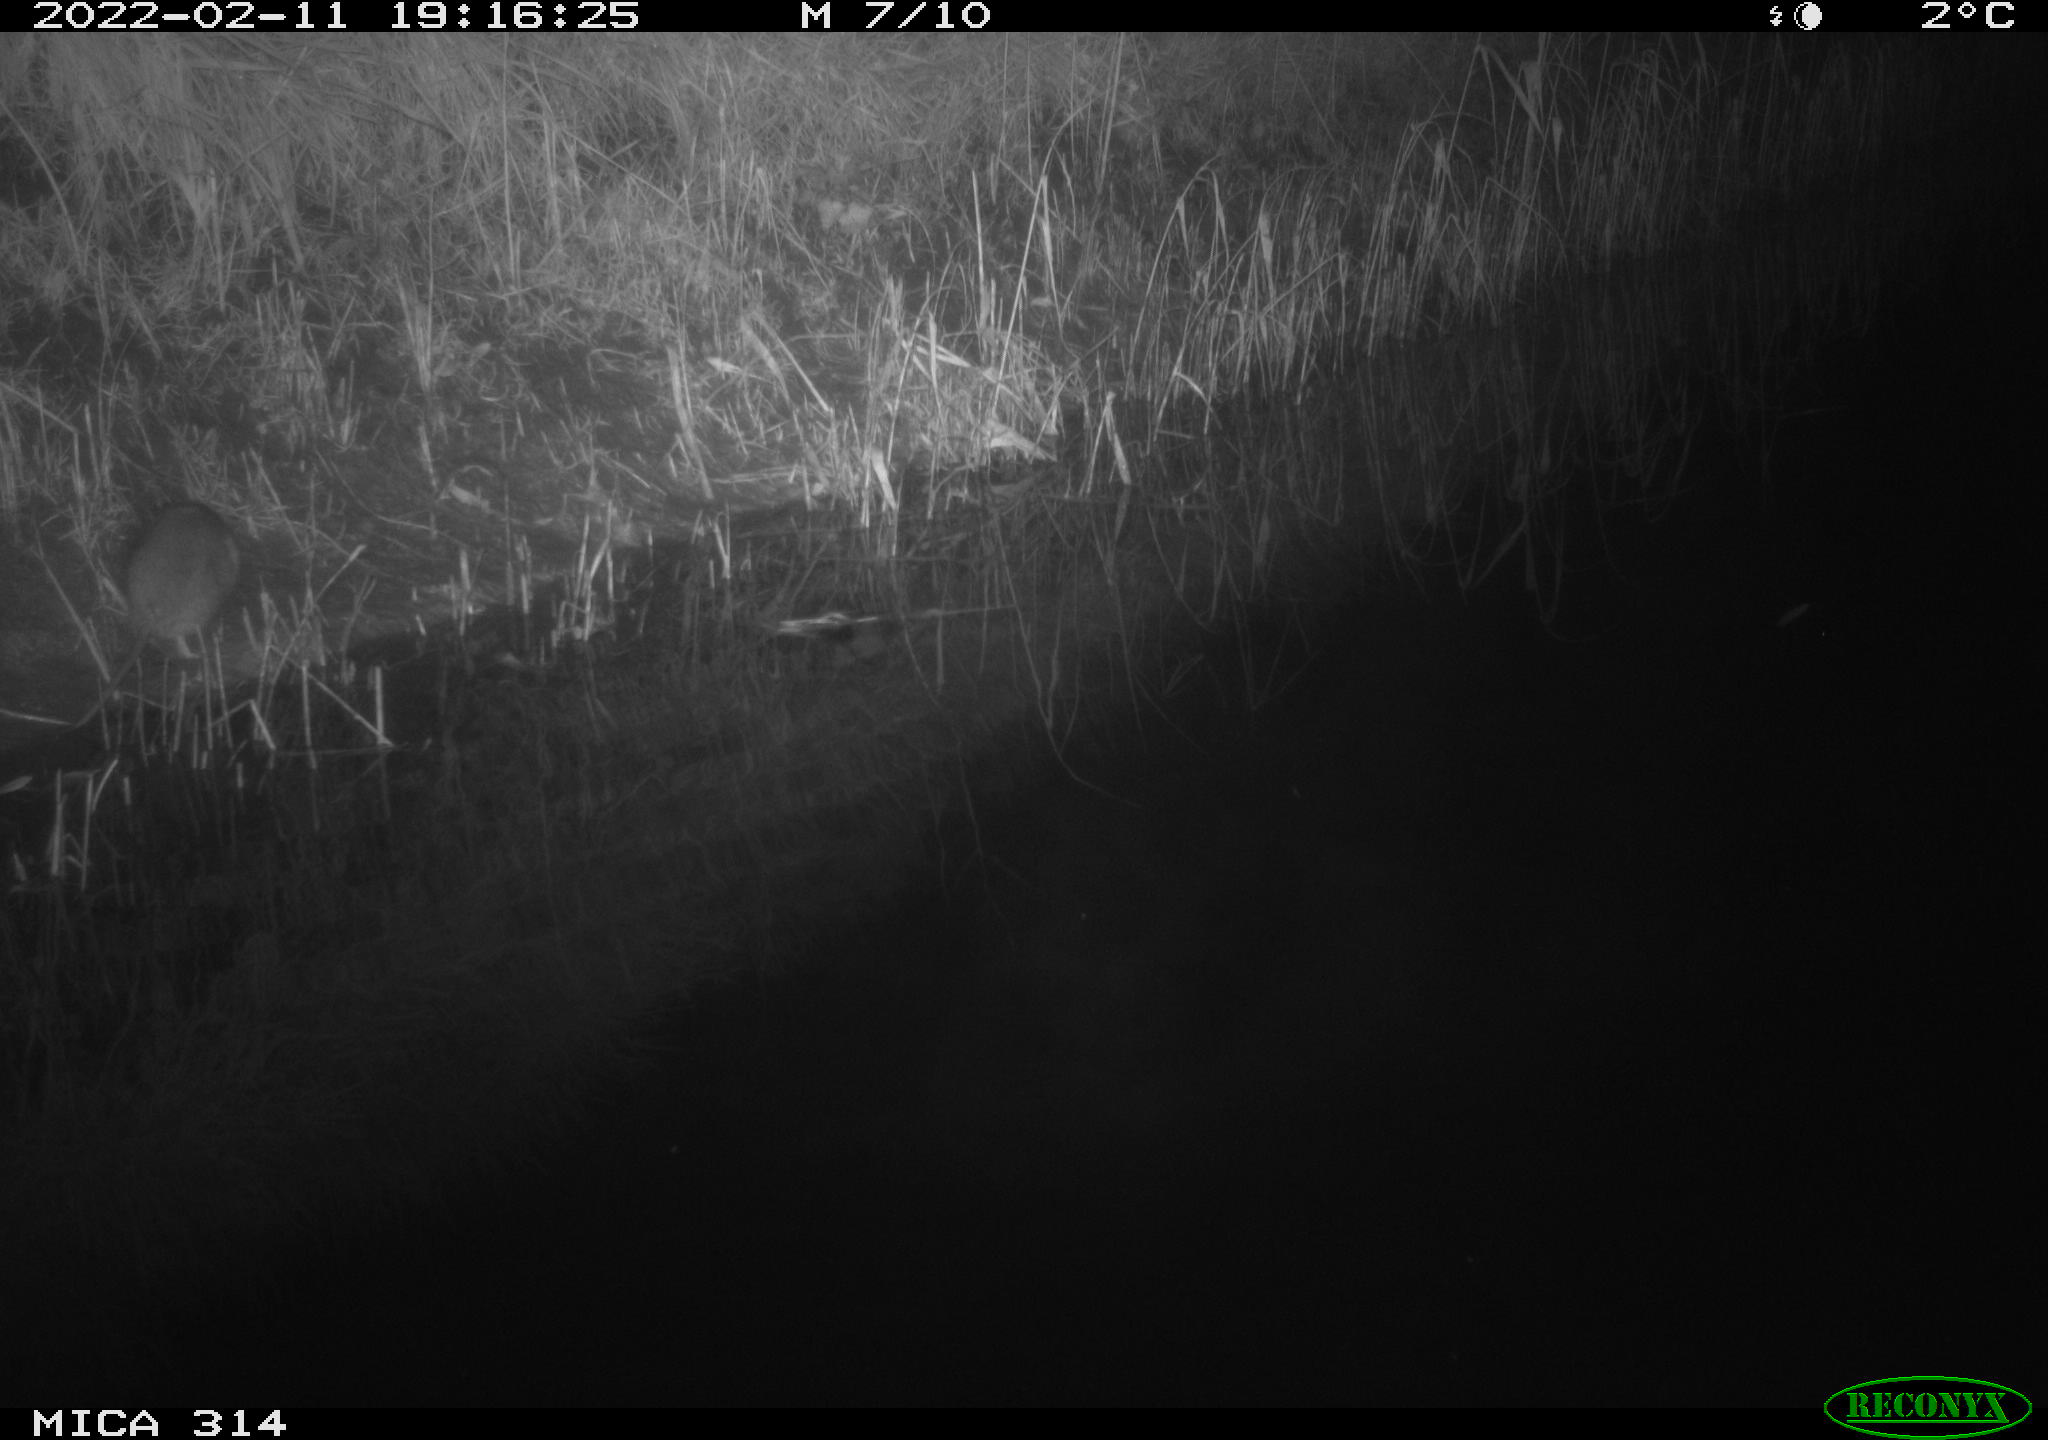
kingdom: Animalia
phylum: Chordata
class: Mammalia
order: Rodentia
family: Muridae
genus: Rattus
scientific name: Rattus norvegicus
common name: Brown rat
